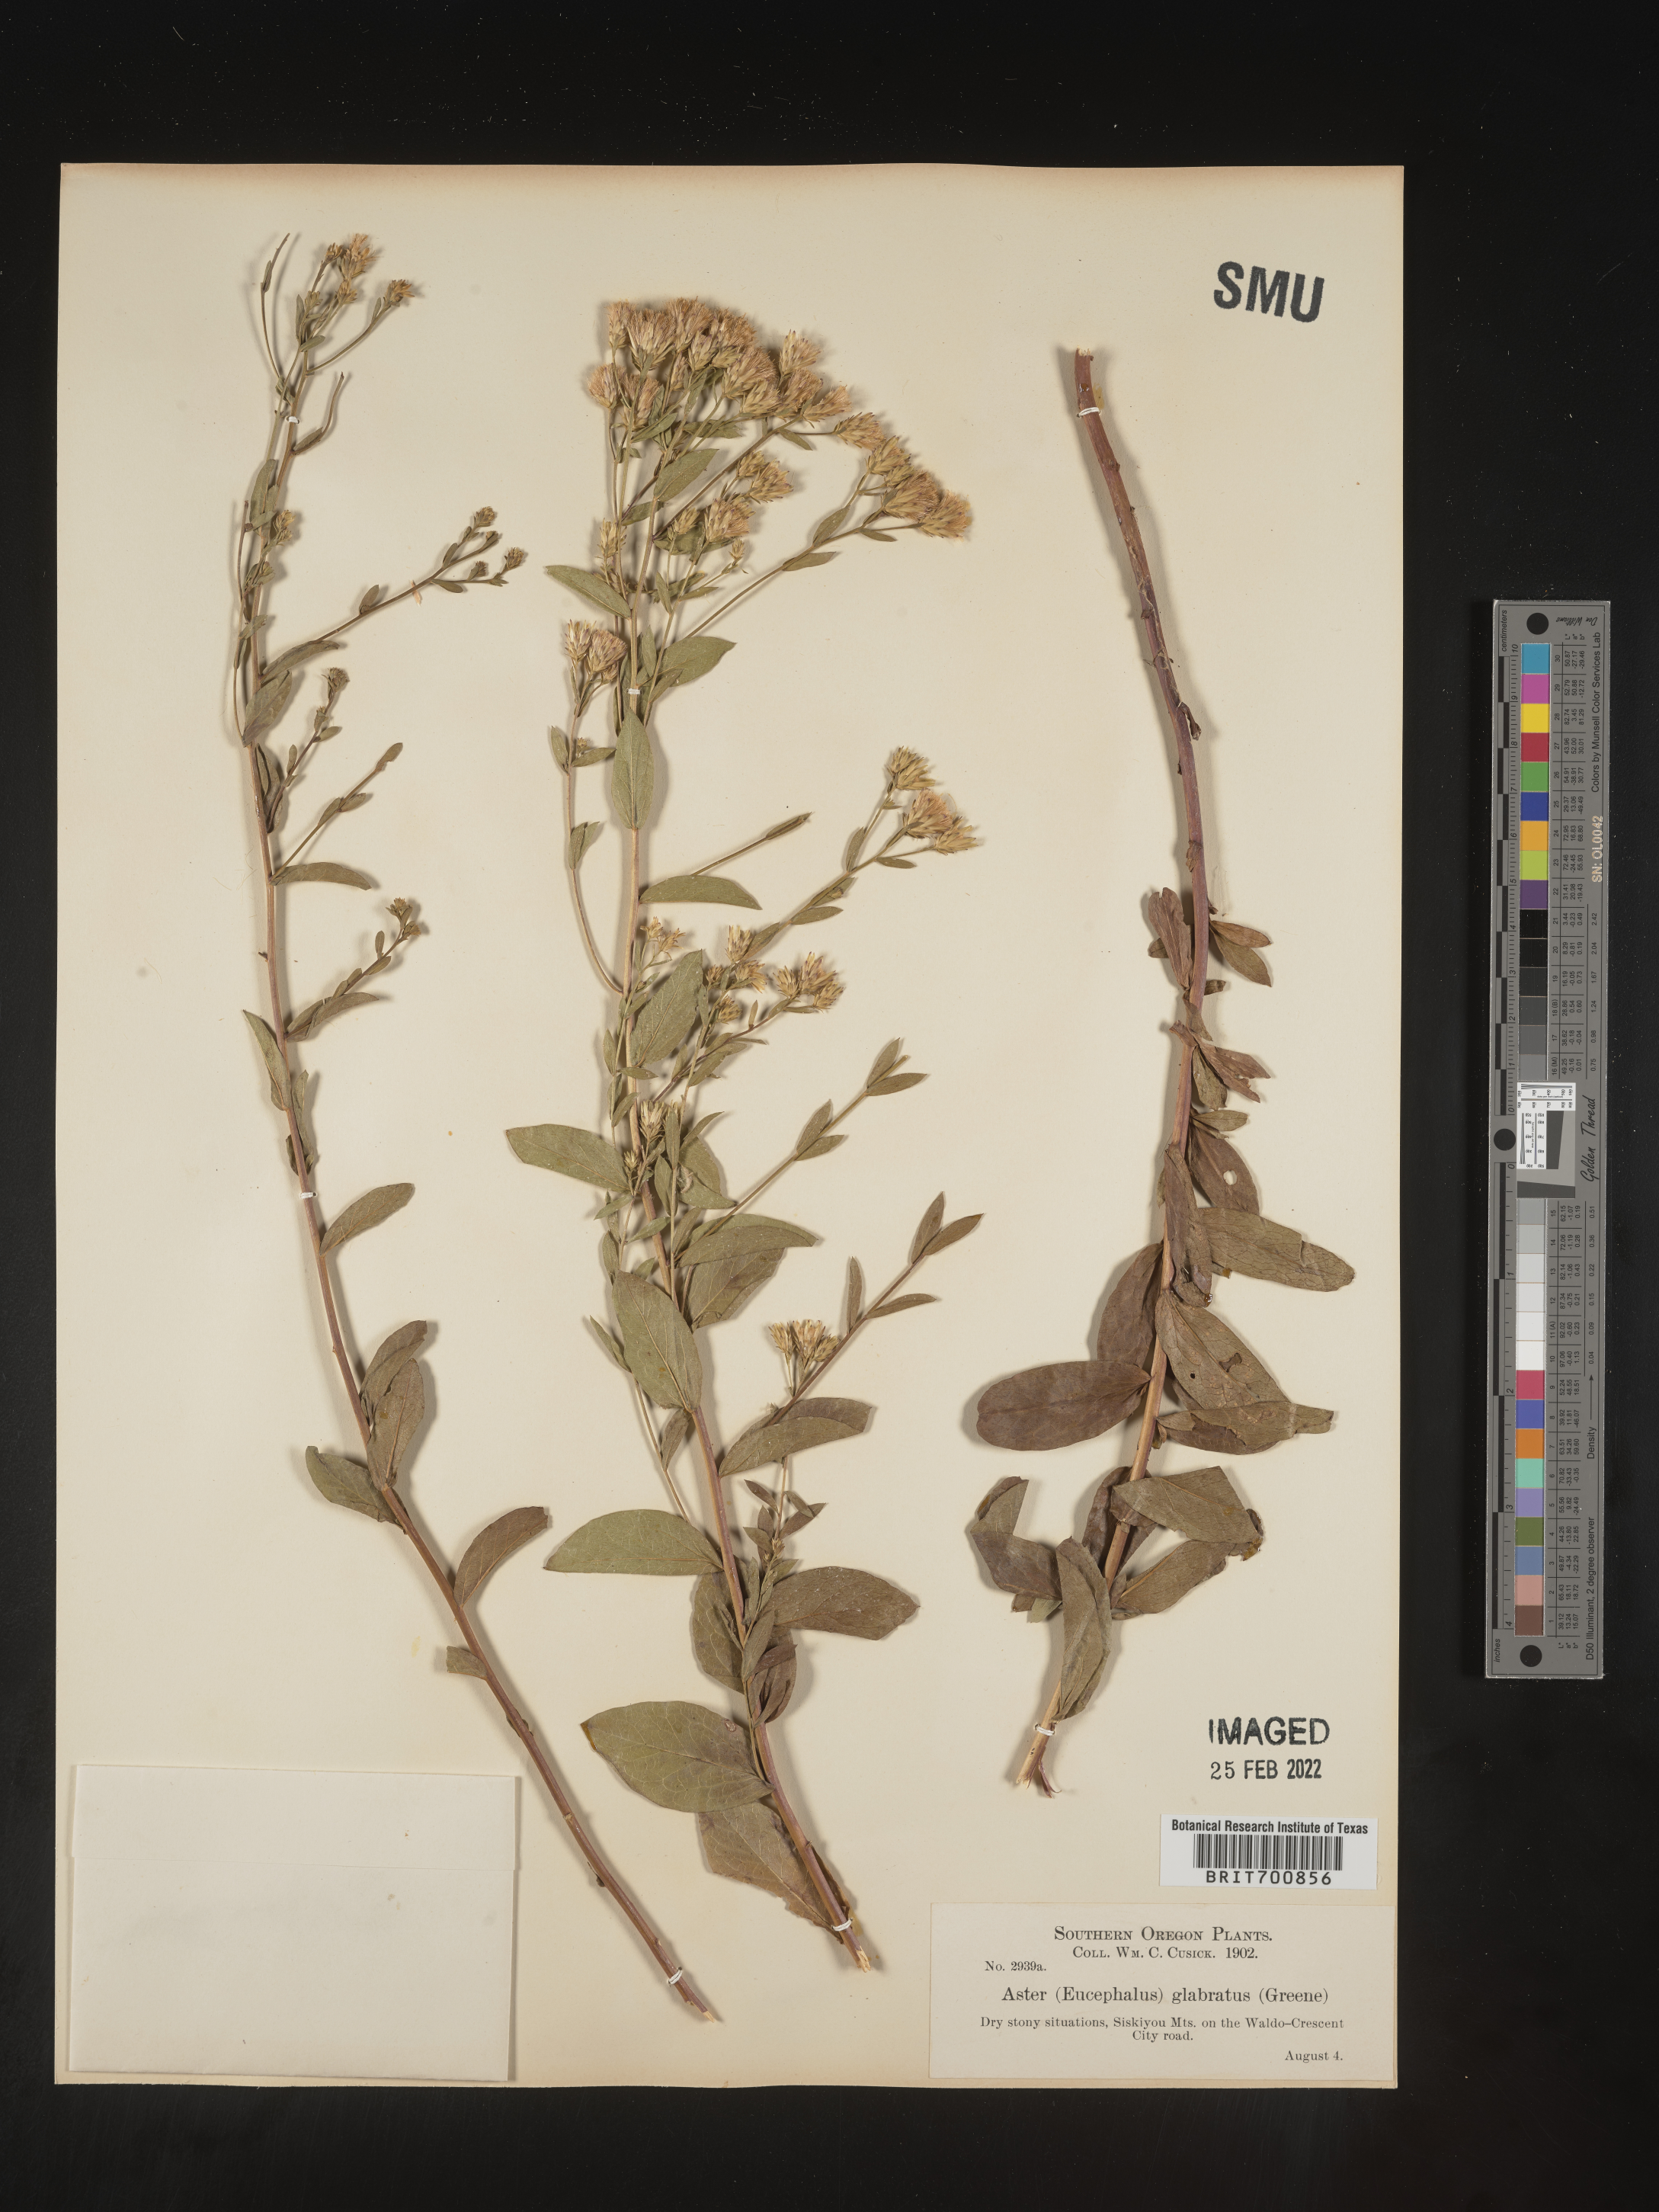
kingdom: Plantae
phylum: Tracheophyta
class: Magnoliopsida
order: Asterales
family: Asteraceae
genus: Eucephalus
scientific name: Eucephalus
